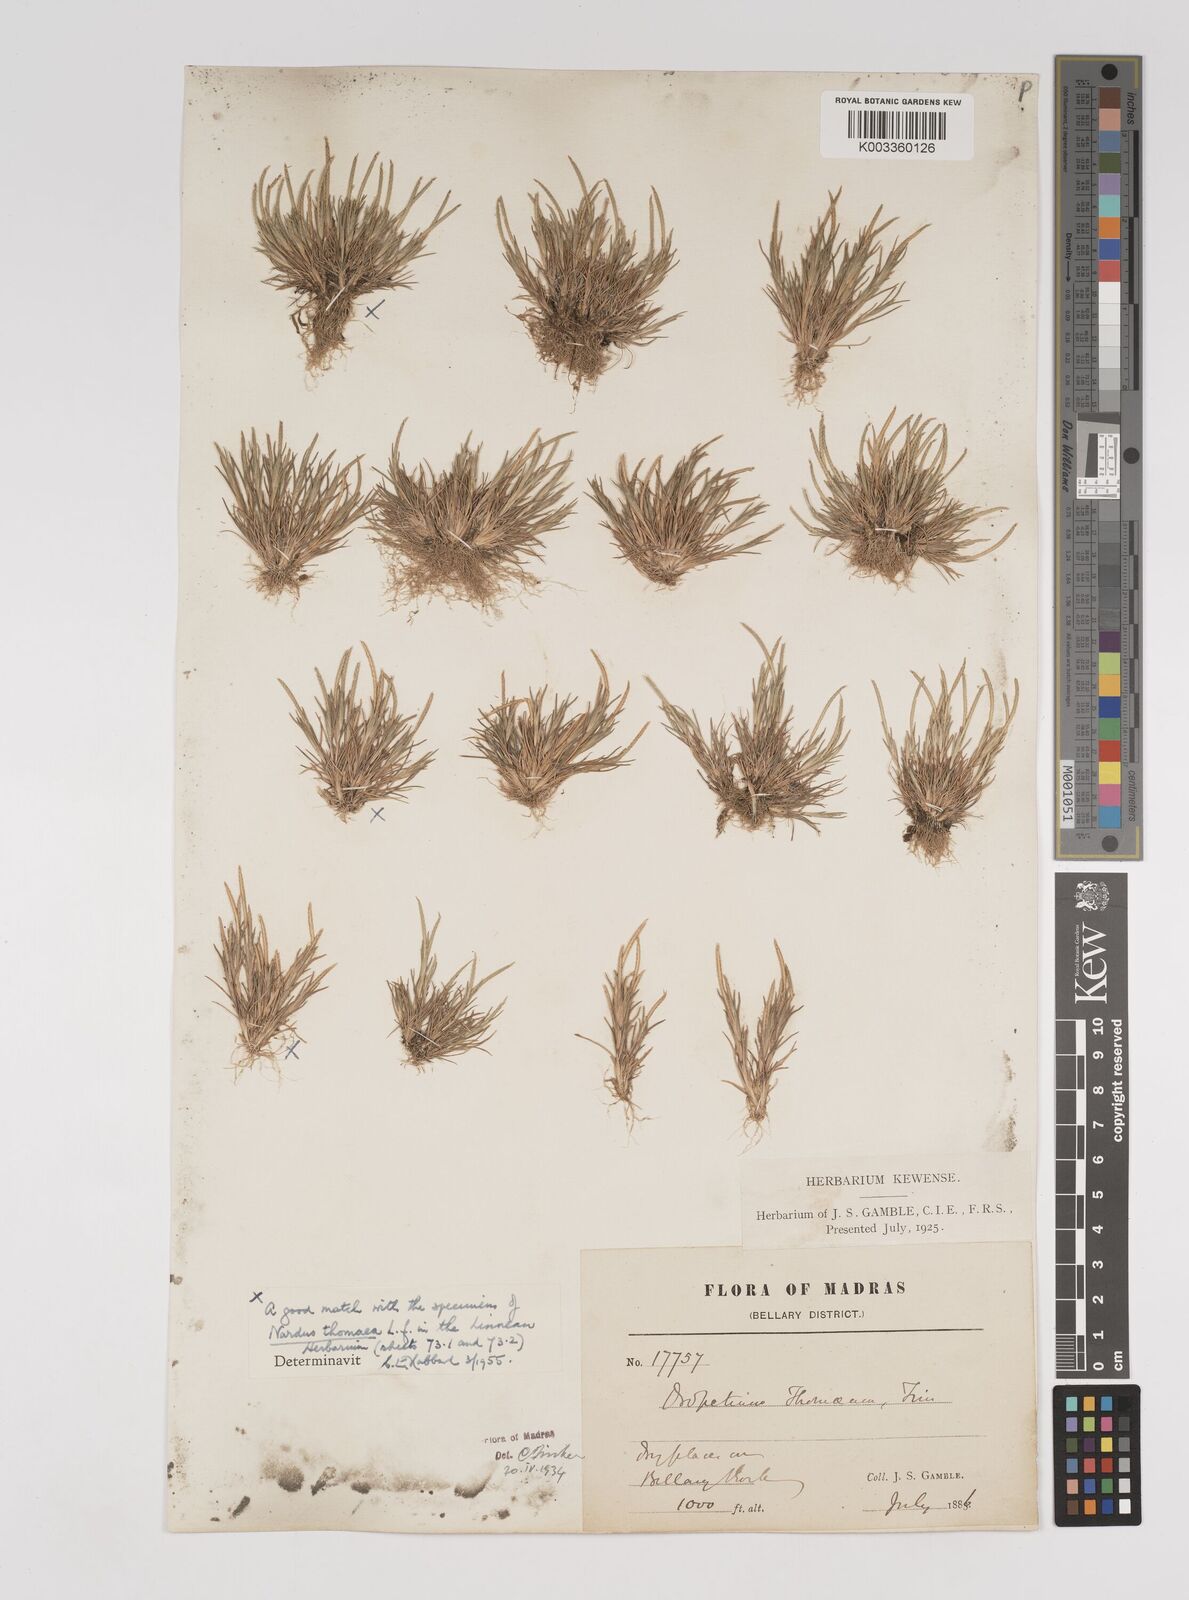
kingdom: Plantae
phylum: Tracheophyta
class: Liliopsida
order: Poales
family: Poaceae
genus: Oropetium
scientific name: Oropetium thomaeum
